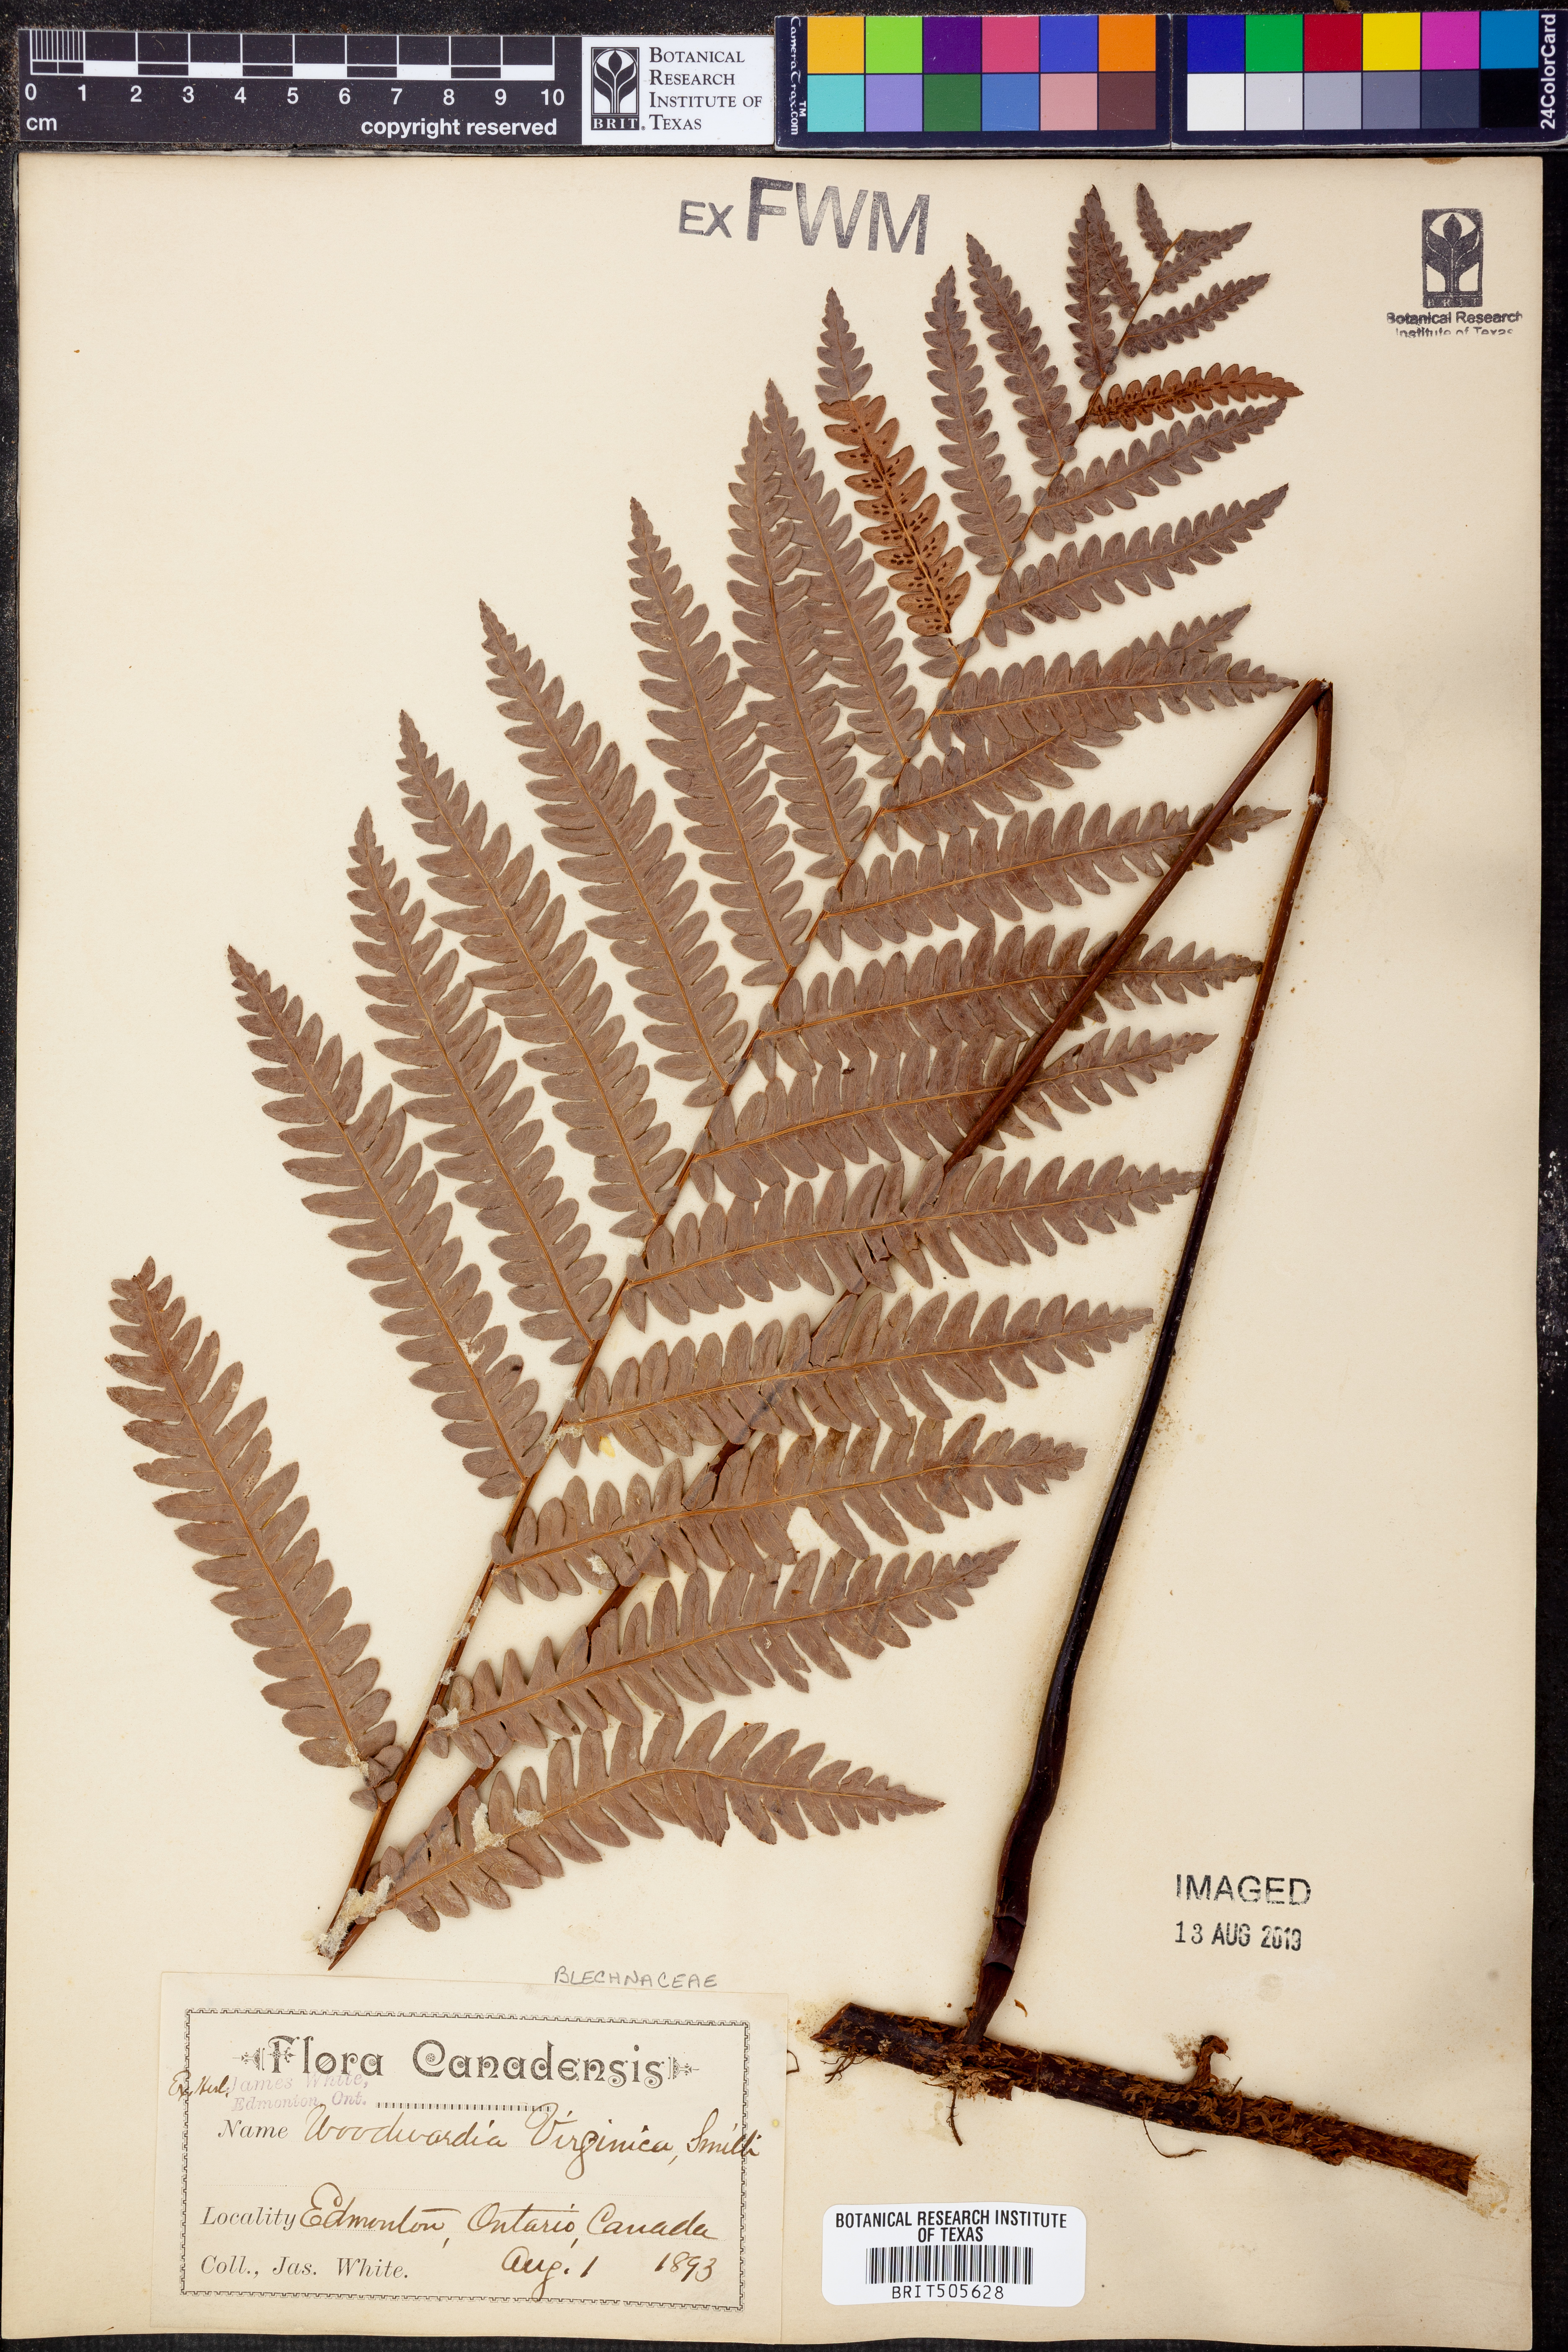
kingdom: Plantae
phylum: Tracheophyta
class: Polypodiopsida
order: Polypodiales
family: Blechnaceae
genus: Anchistea
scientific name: Anchistea virginica
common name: Virginia chain fern
